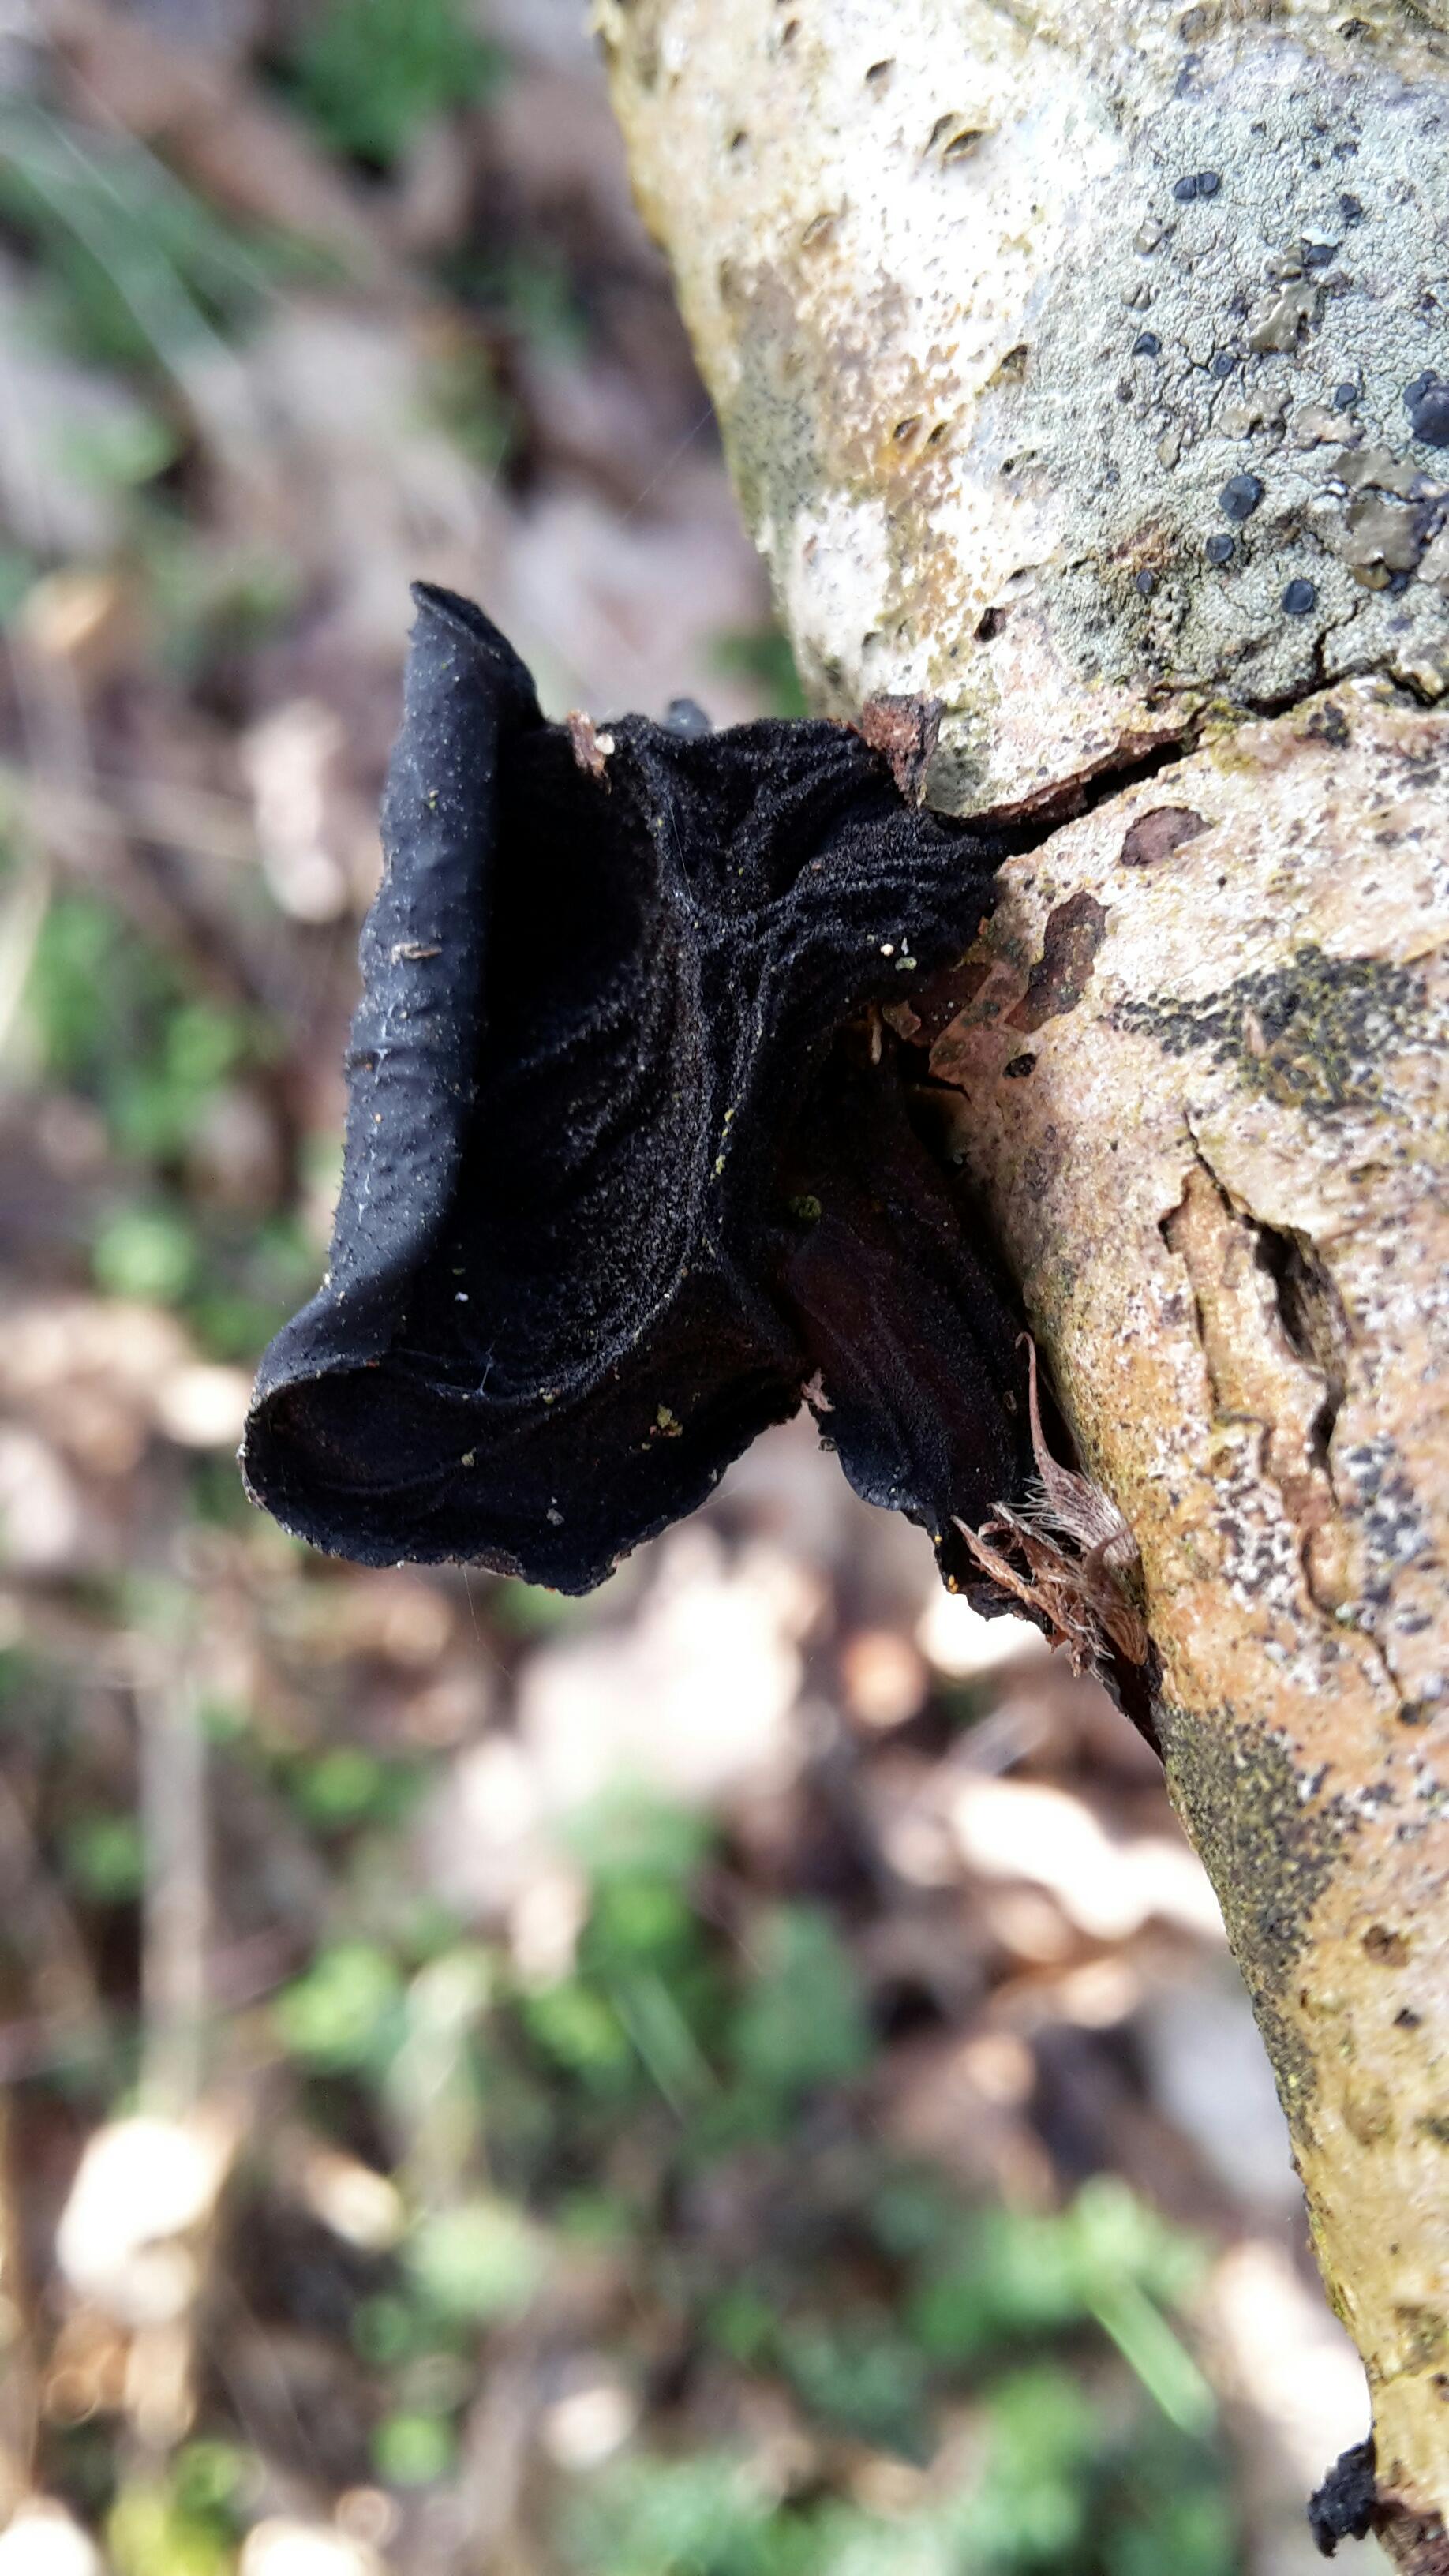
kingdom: Fungi
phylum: Basidiomycota
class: Agaricomycetes
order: Auriculariales
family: Auriculariaceae
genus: Exidia
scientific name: Exidia glandulosa
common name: ege-bævretop
